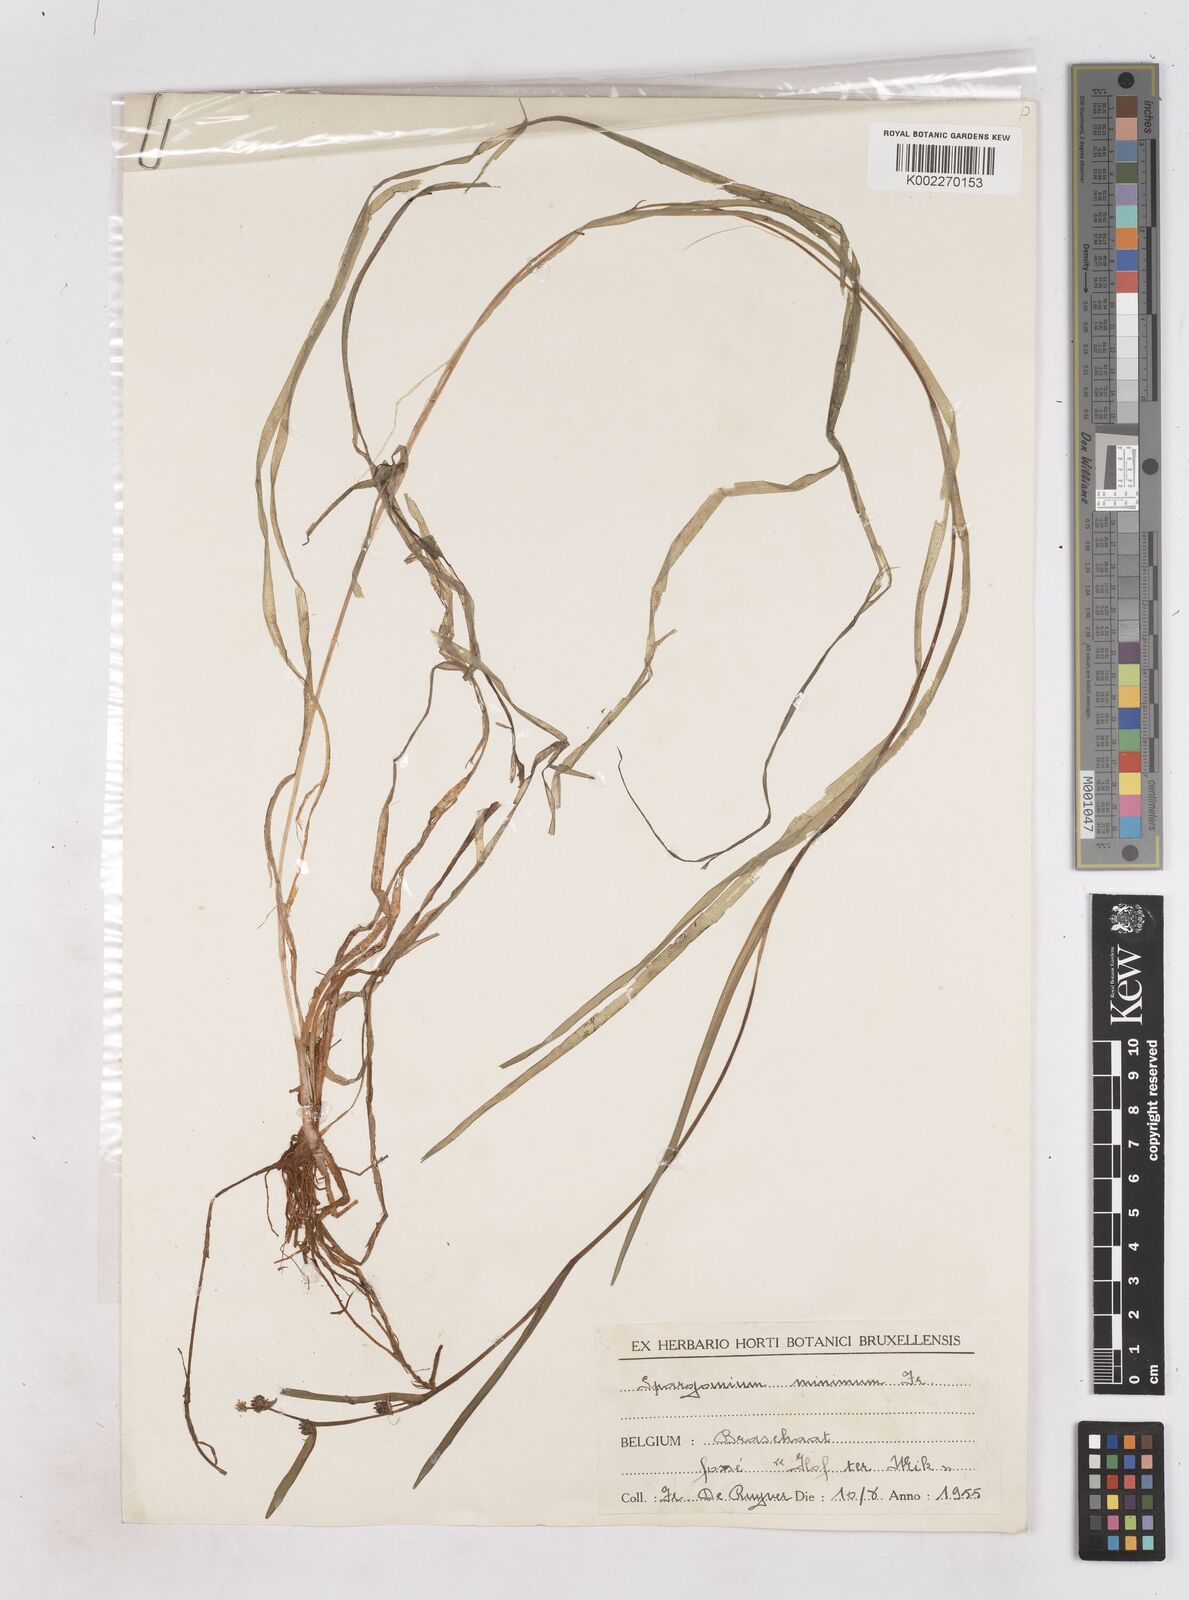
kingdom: Plantae
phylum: Tracheophyta
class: Liliopsida
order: Poales
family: Typhaceae
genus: Sparganium
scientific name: Sparganium natans
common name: Least bur-reed
